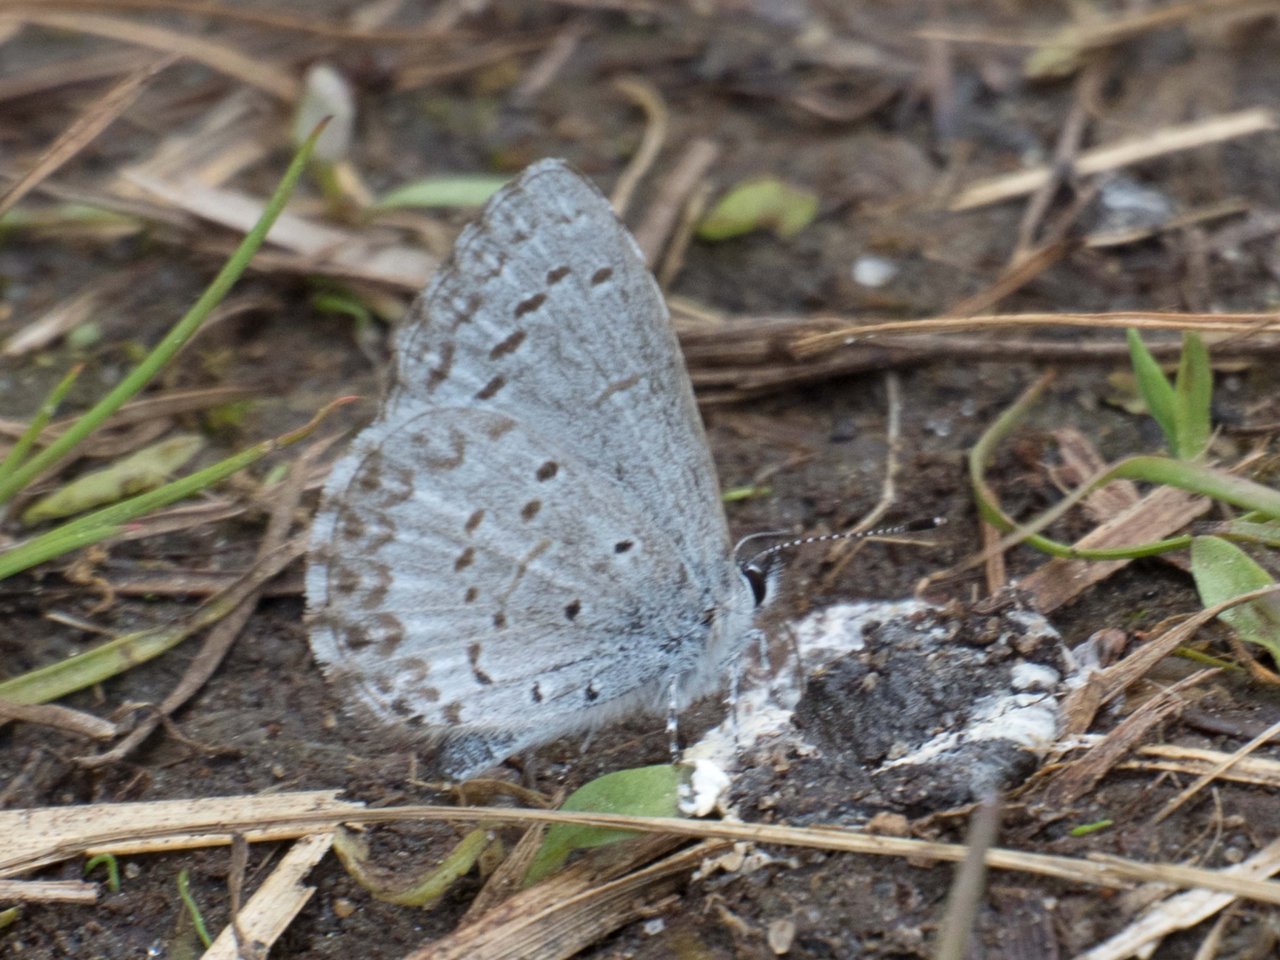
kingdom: Animalia
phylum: Arthropoda
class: Insecta
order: Lepidoptera
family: Lycaenidae
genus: Celastrina
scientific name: Celastrina
